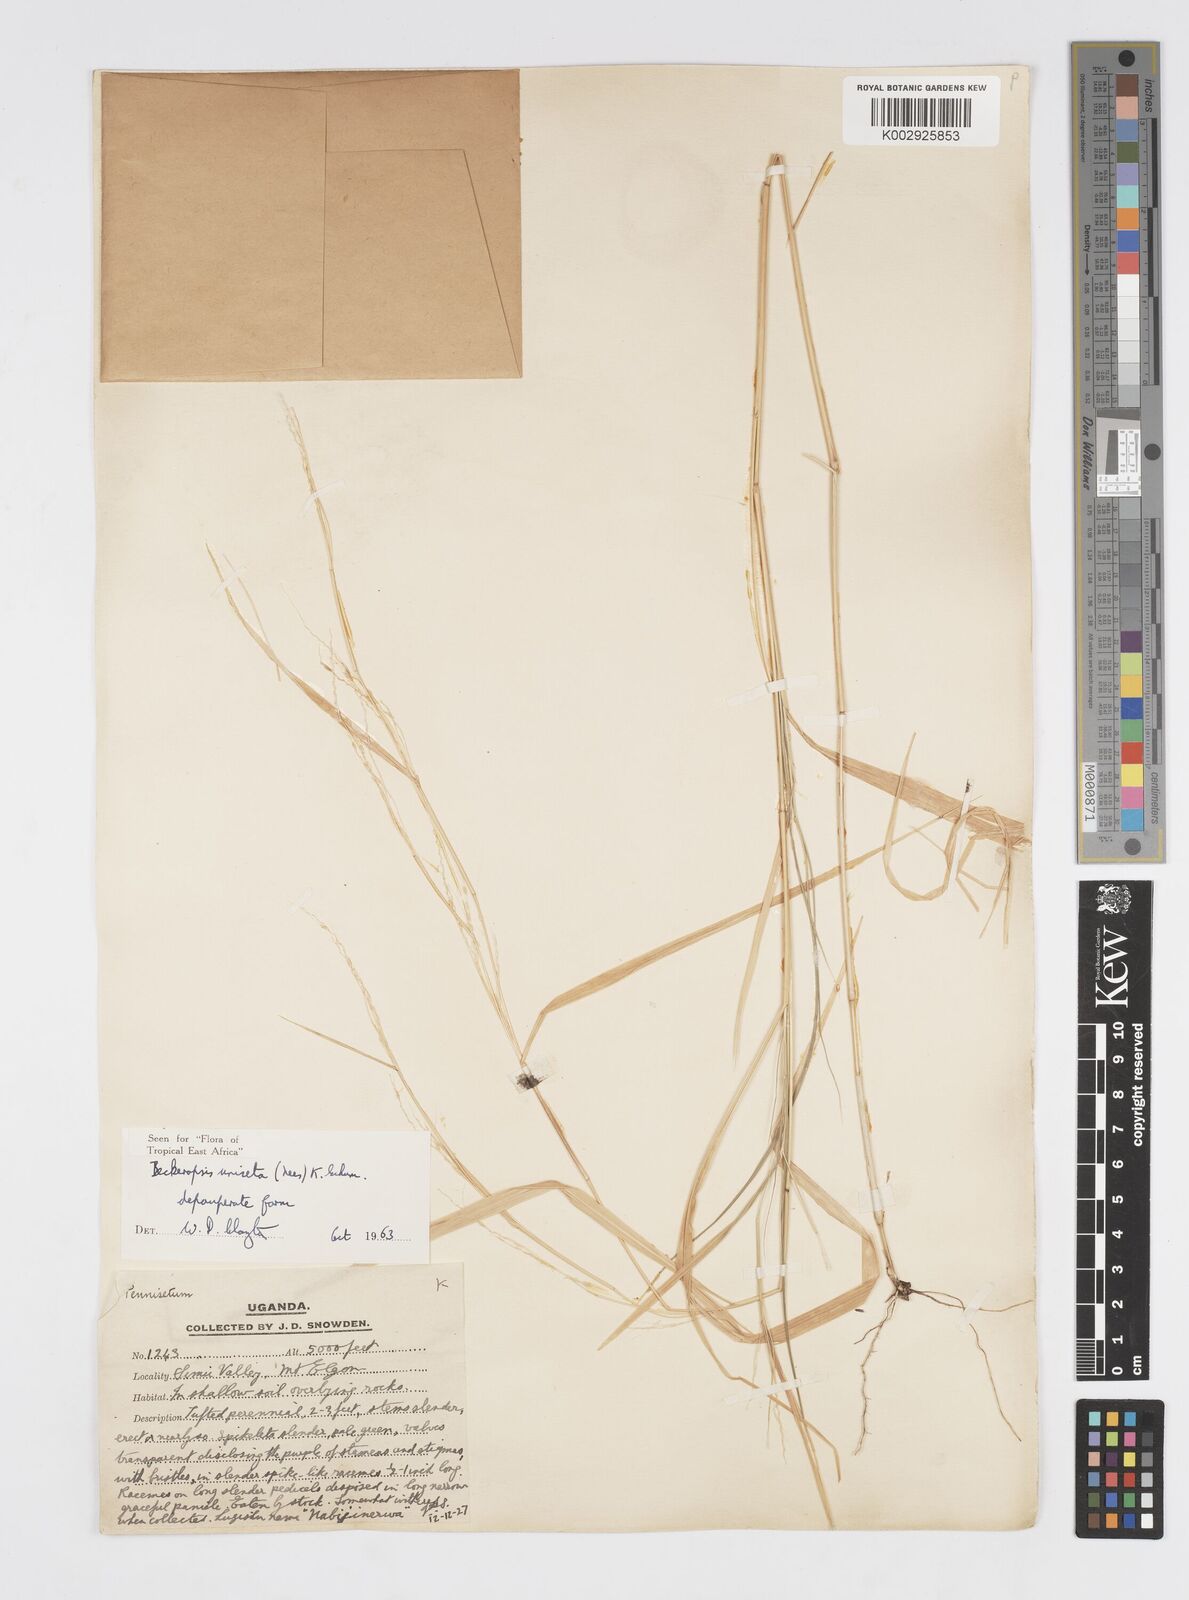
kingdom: Plantae
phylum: Tracheophyta
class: Liliopsida
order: Poales
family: Poaceae
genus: Cenchrus
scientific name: Cenchrus unisetus
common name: Natal grass
